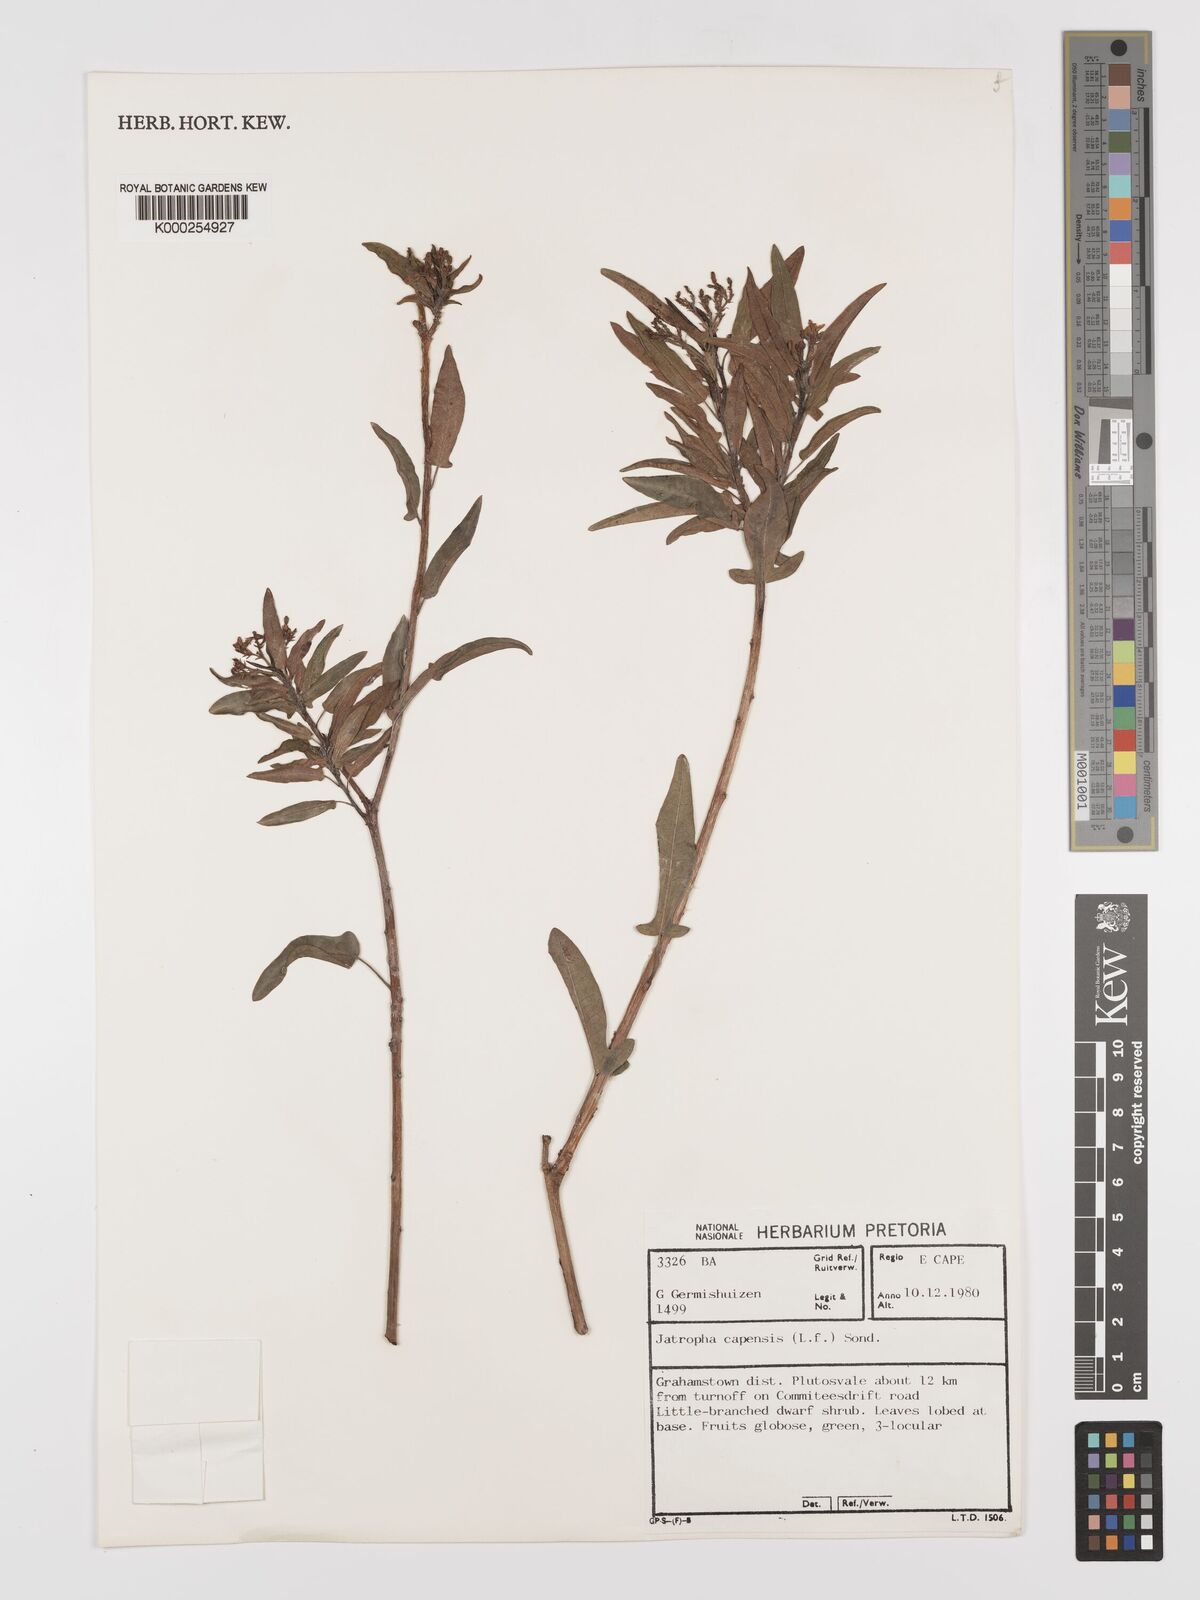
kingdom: Plantae
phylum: Tracheophyta
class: Magnoliopsida
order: Malpighiales
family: Euphorbiaceae
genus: Jatropha
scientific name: Jatropha capensis
